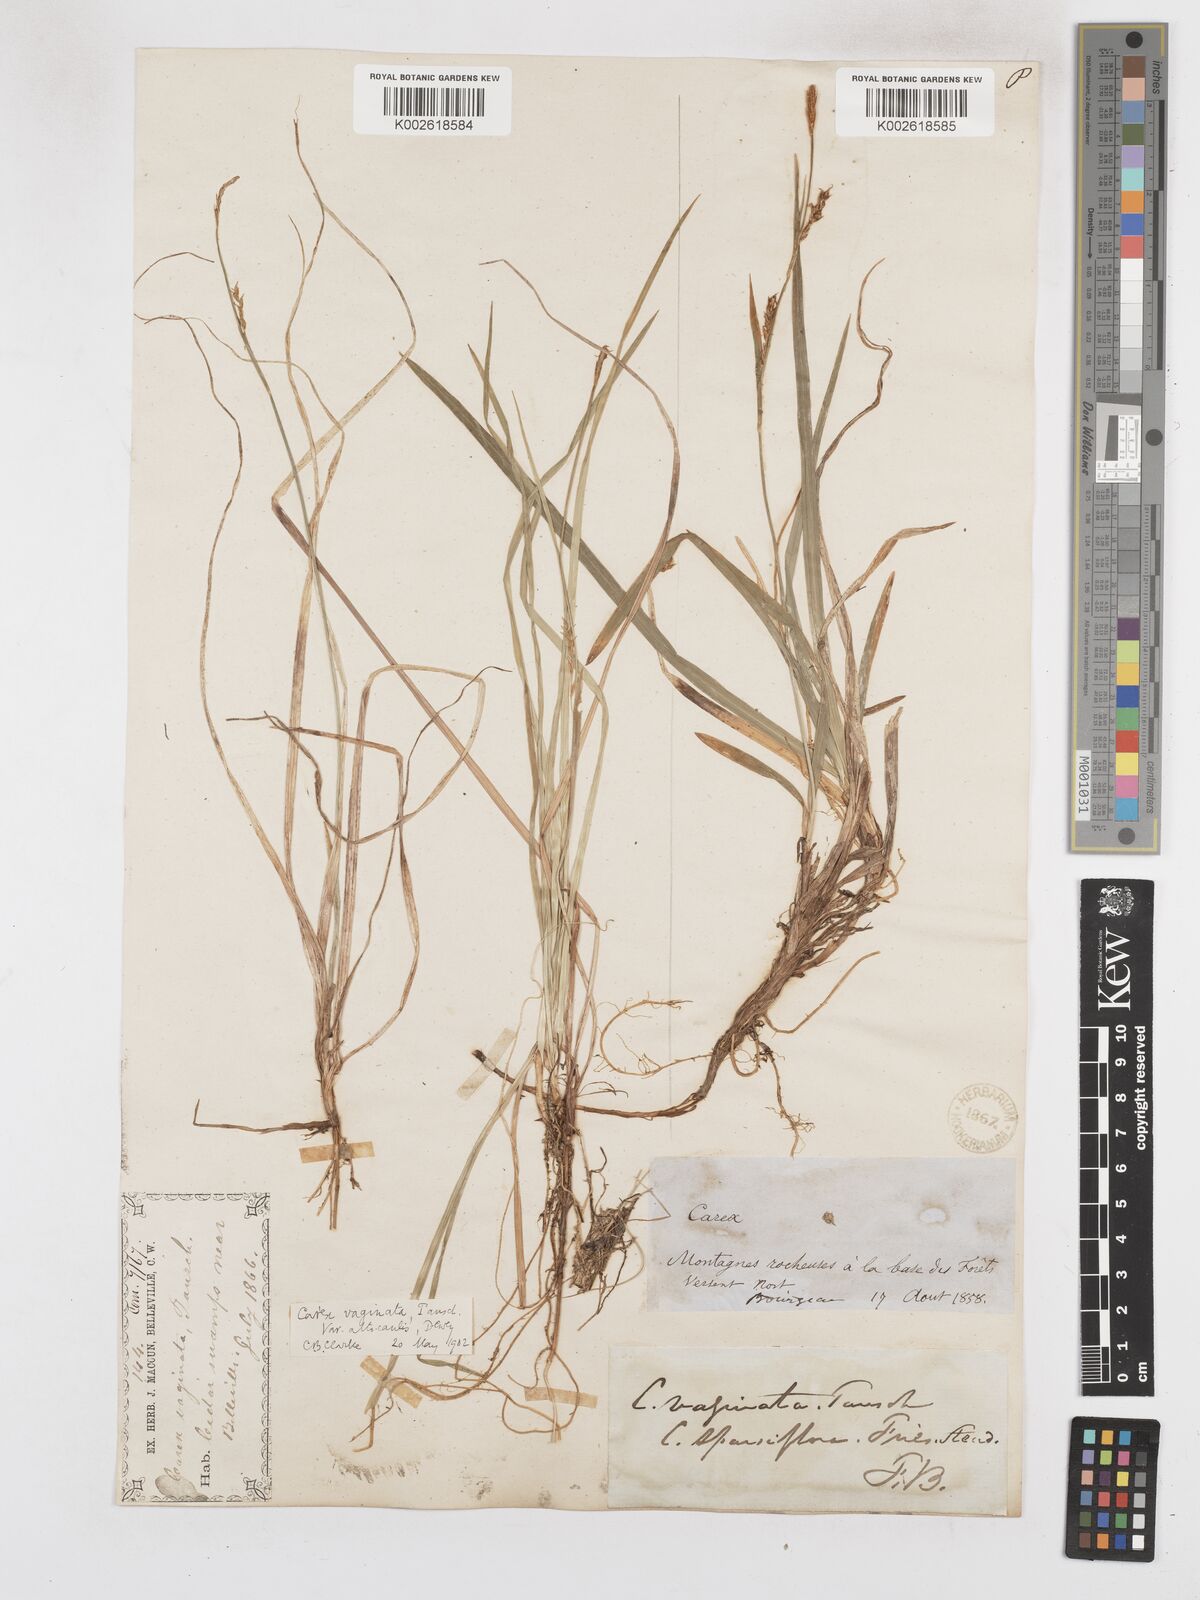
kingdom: Plantae
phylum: Tracheophyta
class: Liliopsida
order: Poales
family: Cyperaceae
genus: Carex
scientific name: Carex vaginata
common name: Sheathed sedge
